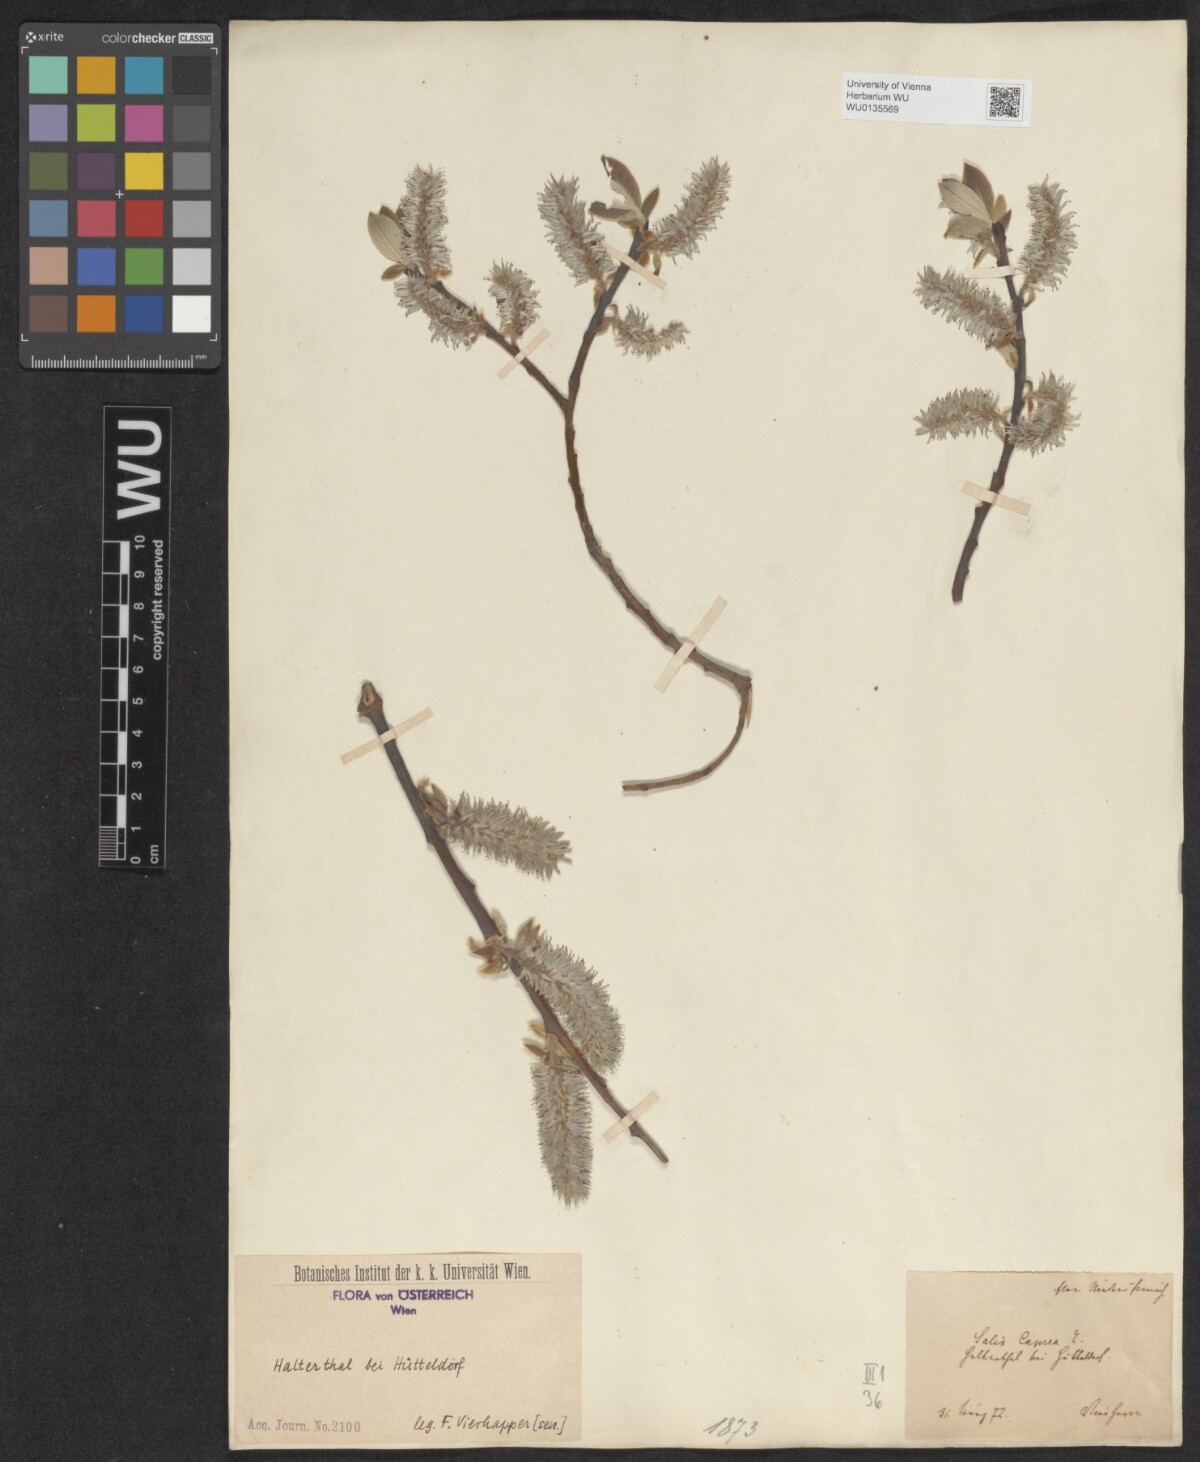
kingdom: Plantae
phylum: Tracheophyta
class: Magnoliopsida
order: Malpighiales
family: Salicaceae
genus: Salix
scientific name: Salix caprea
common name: Goat willow
